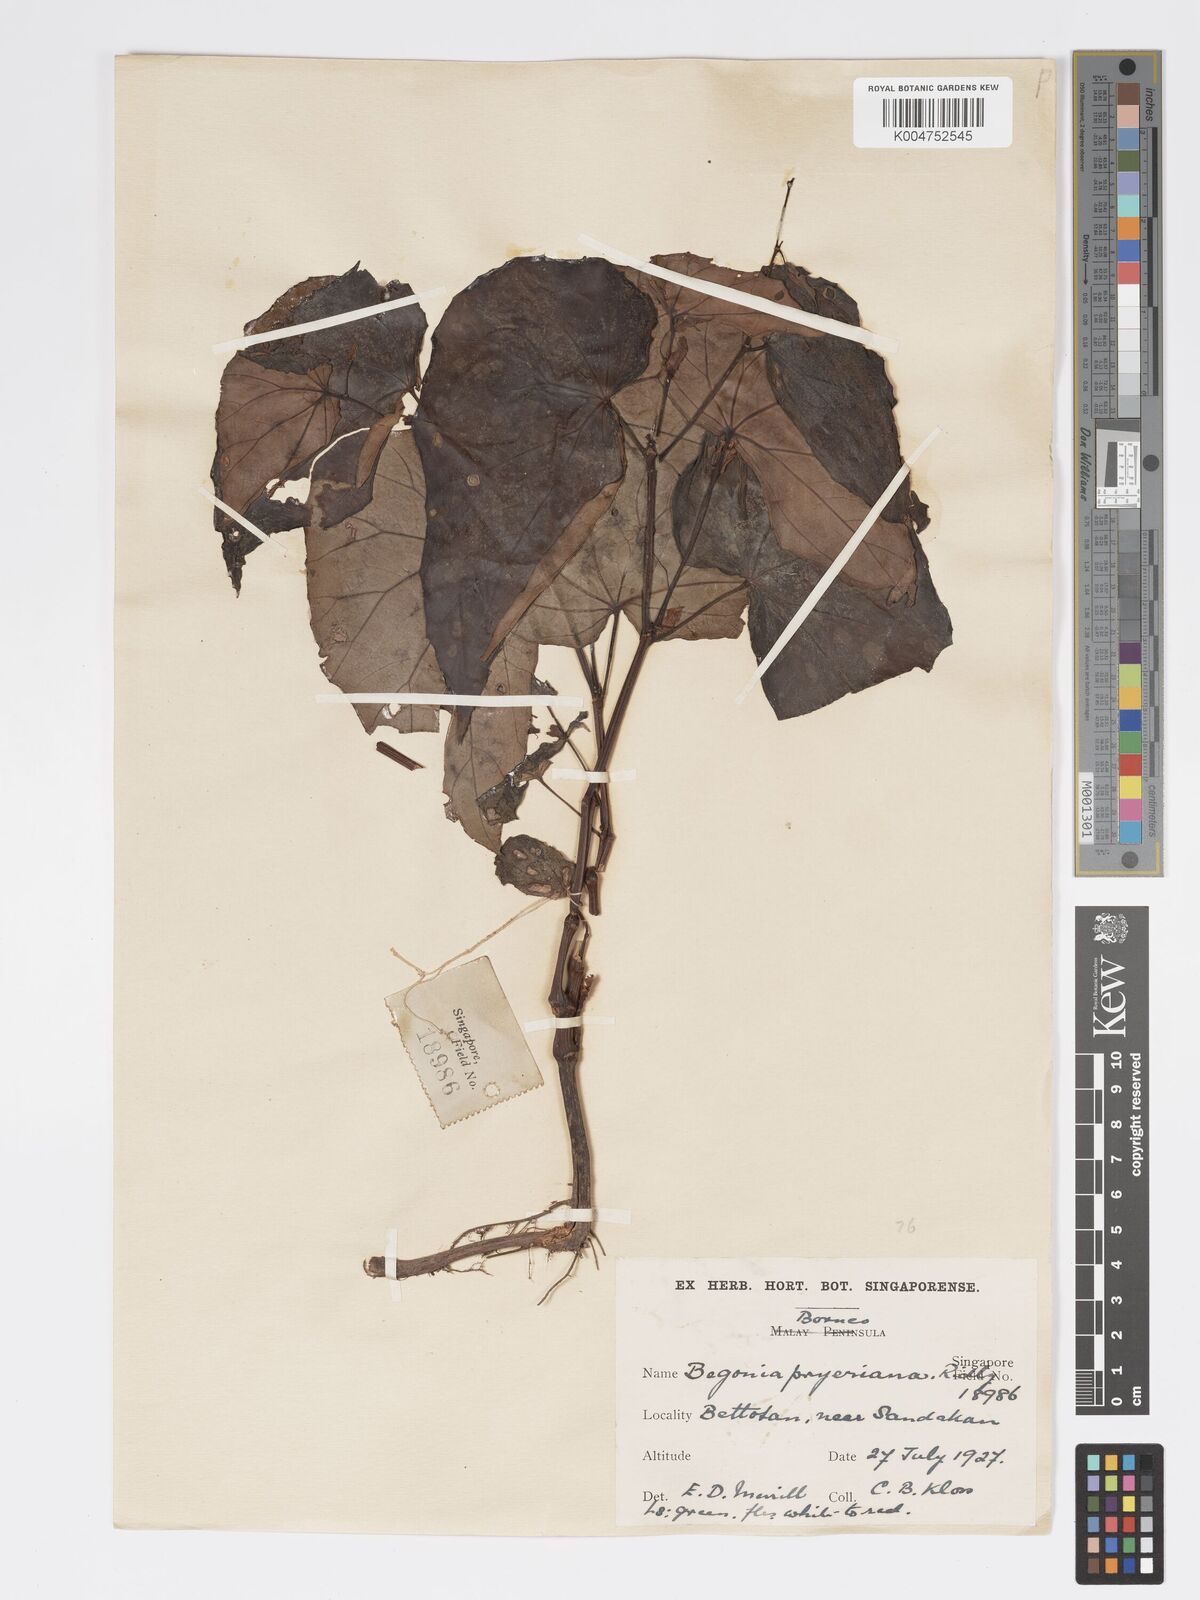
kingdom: Plantae
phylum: Tracheophyta
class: Magnoliopsida
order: Cucurbitales
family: Begoniaceae
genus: Begonia
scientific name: Begonia pryeriana
